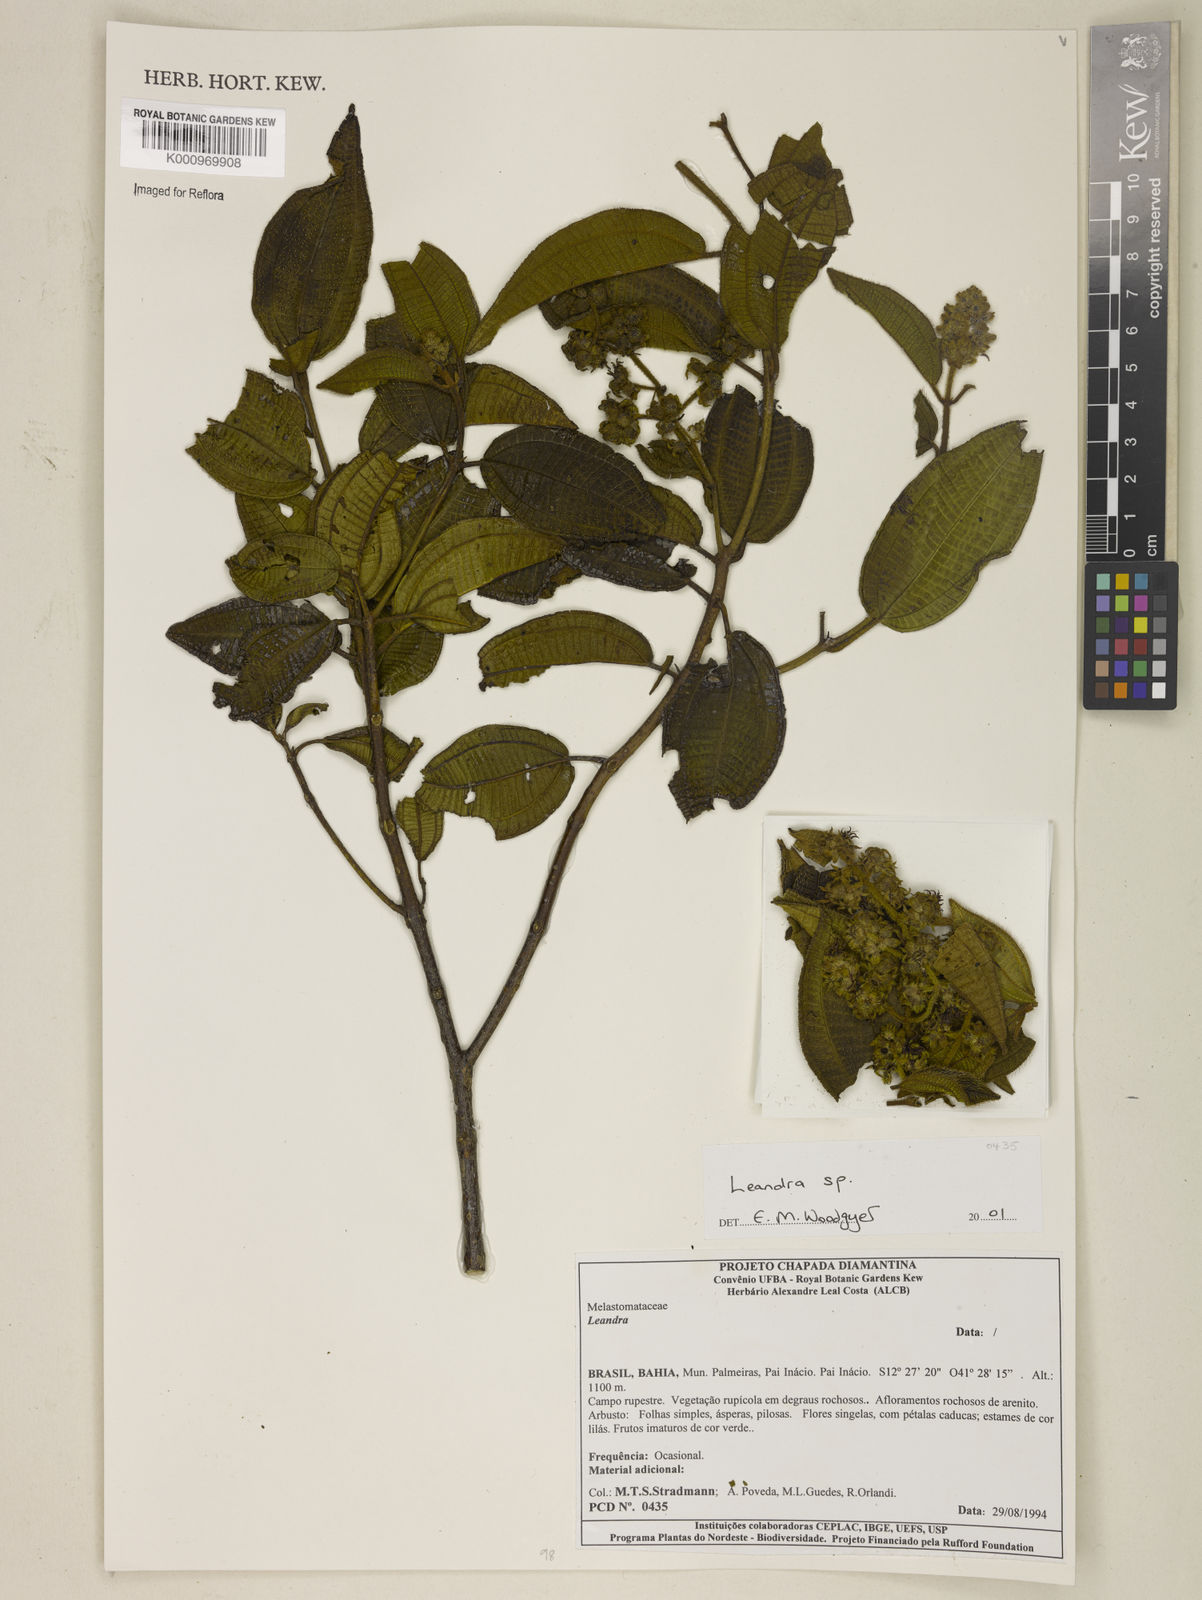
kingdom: Plantae
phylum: Tracheophyta
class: Magnoliopsida
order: Myrtales
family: Melastomataceae
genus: Miconia
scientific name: Miconia
